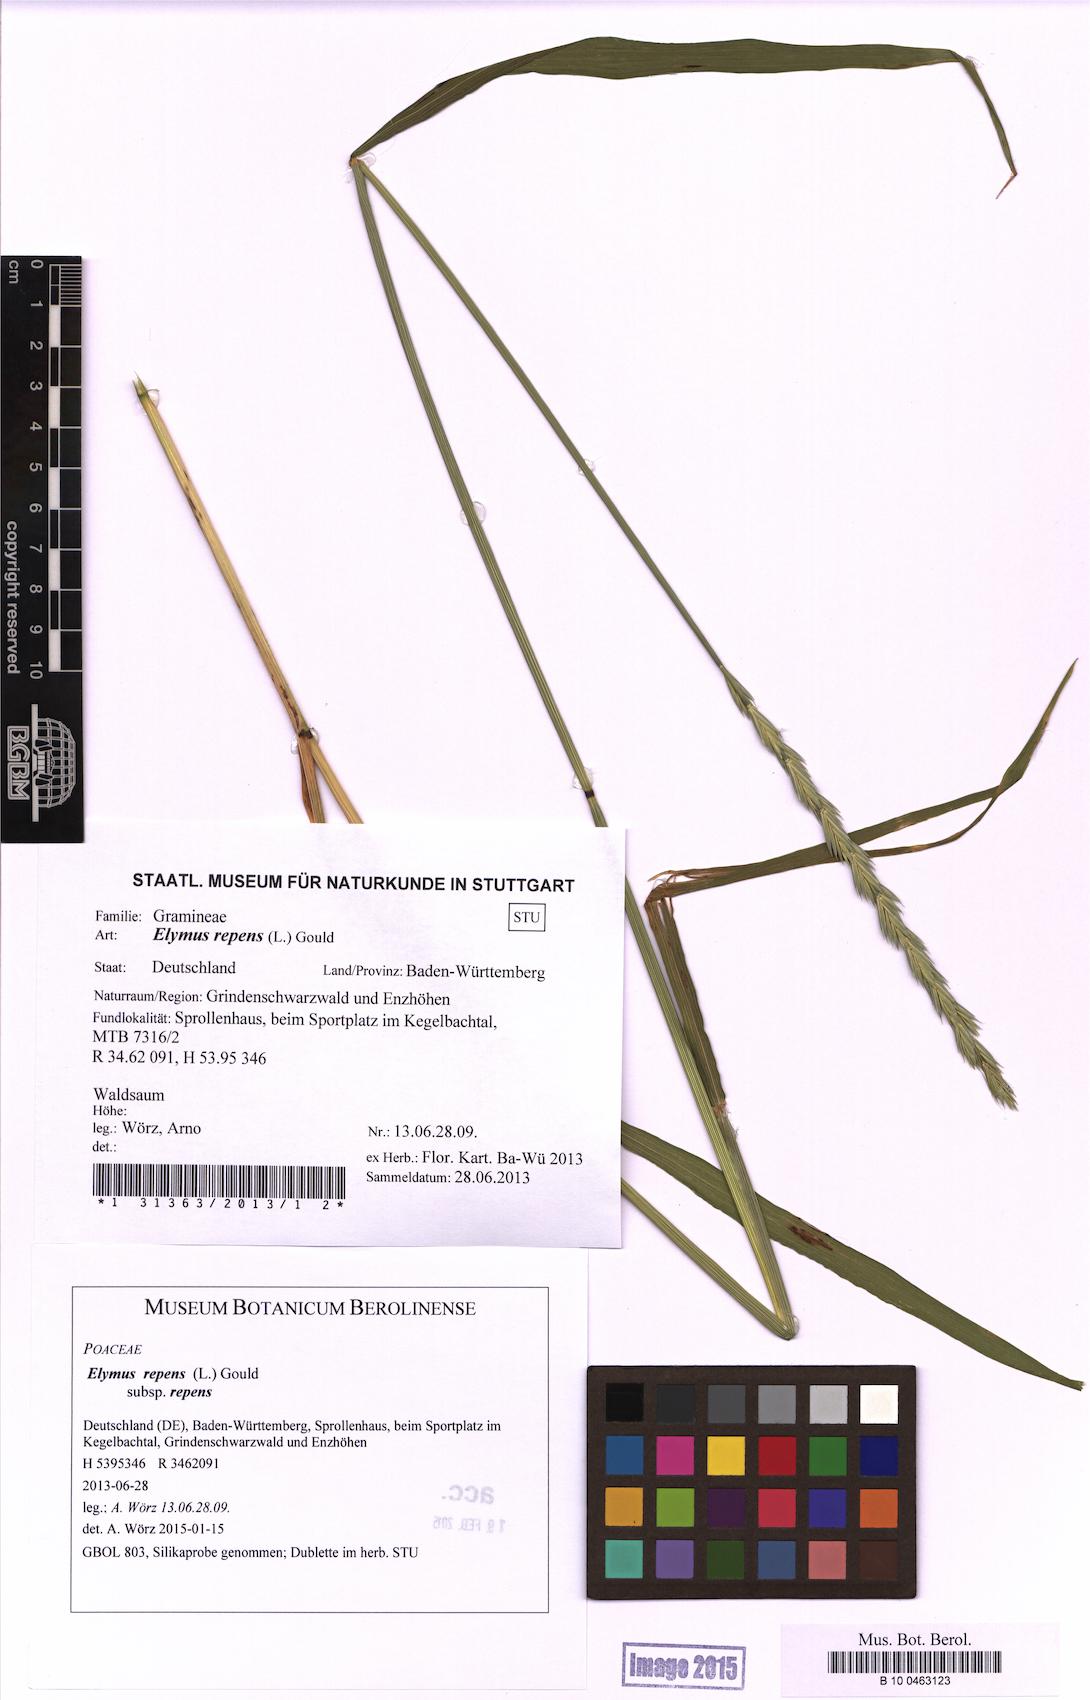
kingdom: Plantae
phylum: Tracheophyta
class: Liliopsida
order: Poales
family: Poaceae
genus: Elymus
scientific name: Elymus repens
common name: Quackgrass
